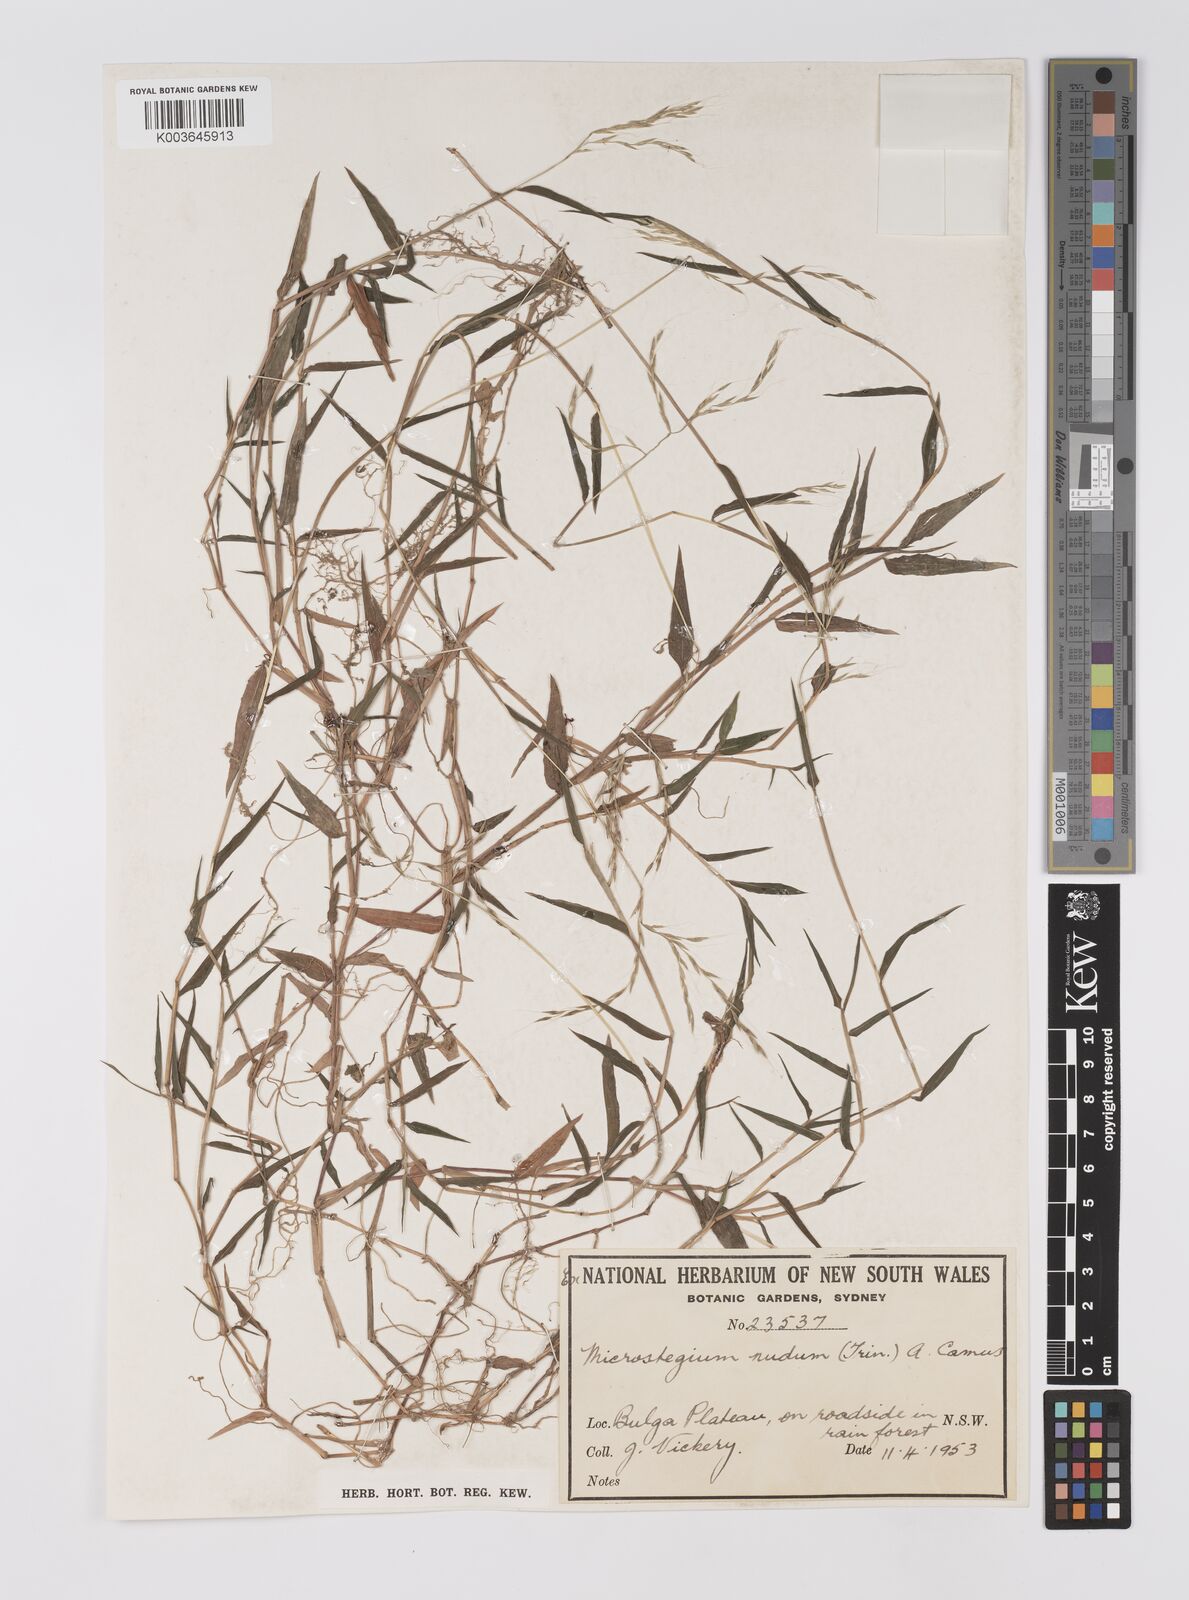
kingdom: Plantae
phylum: Tracheophyta
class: Liliopsida
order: Poales
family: Poaceae
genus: Microstegium
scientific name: Microstegium nudum
